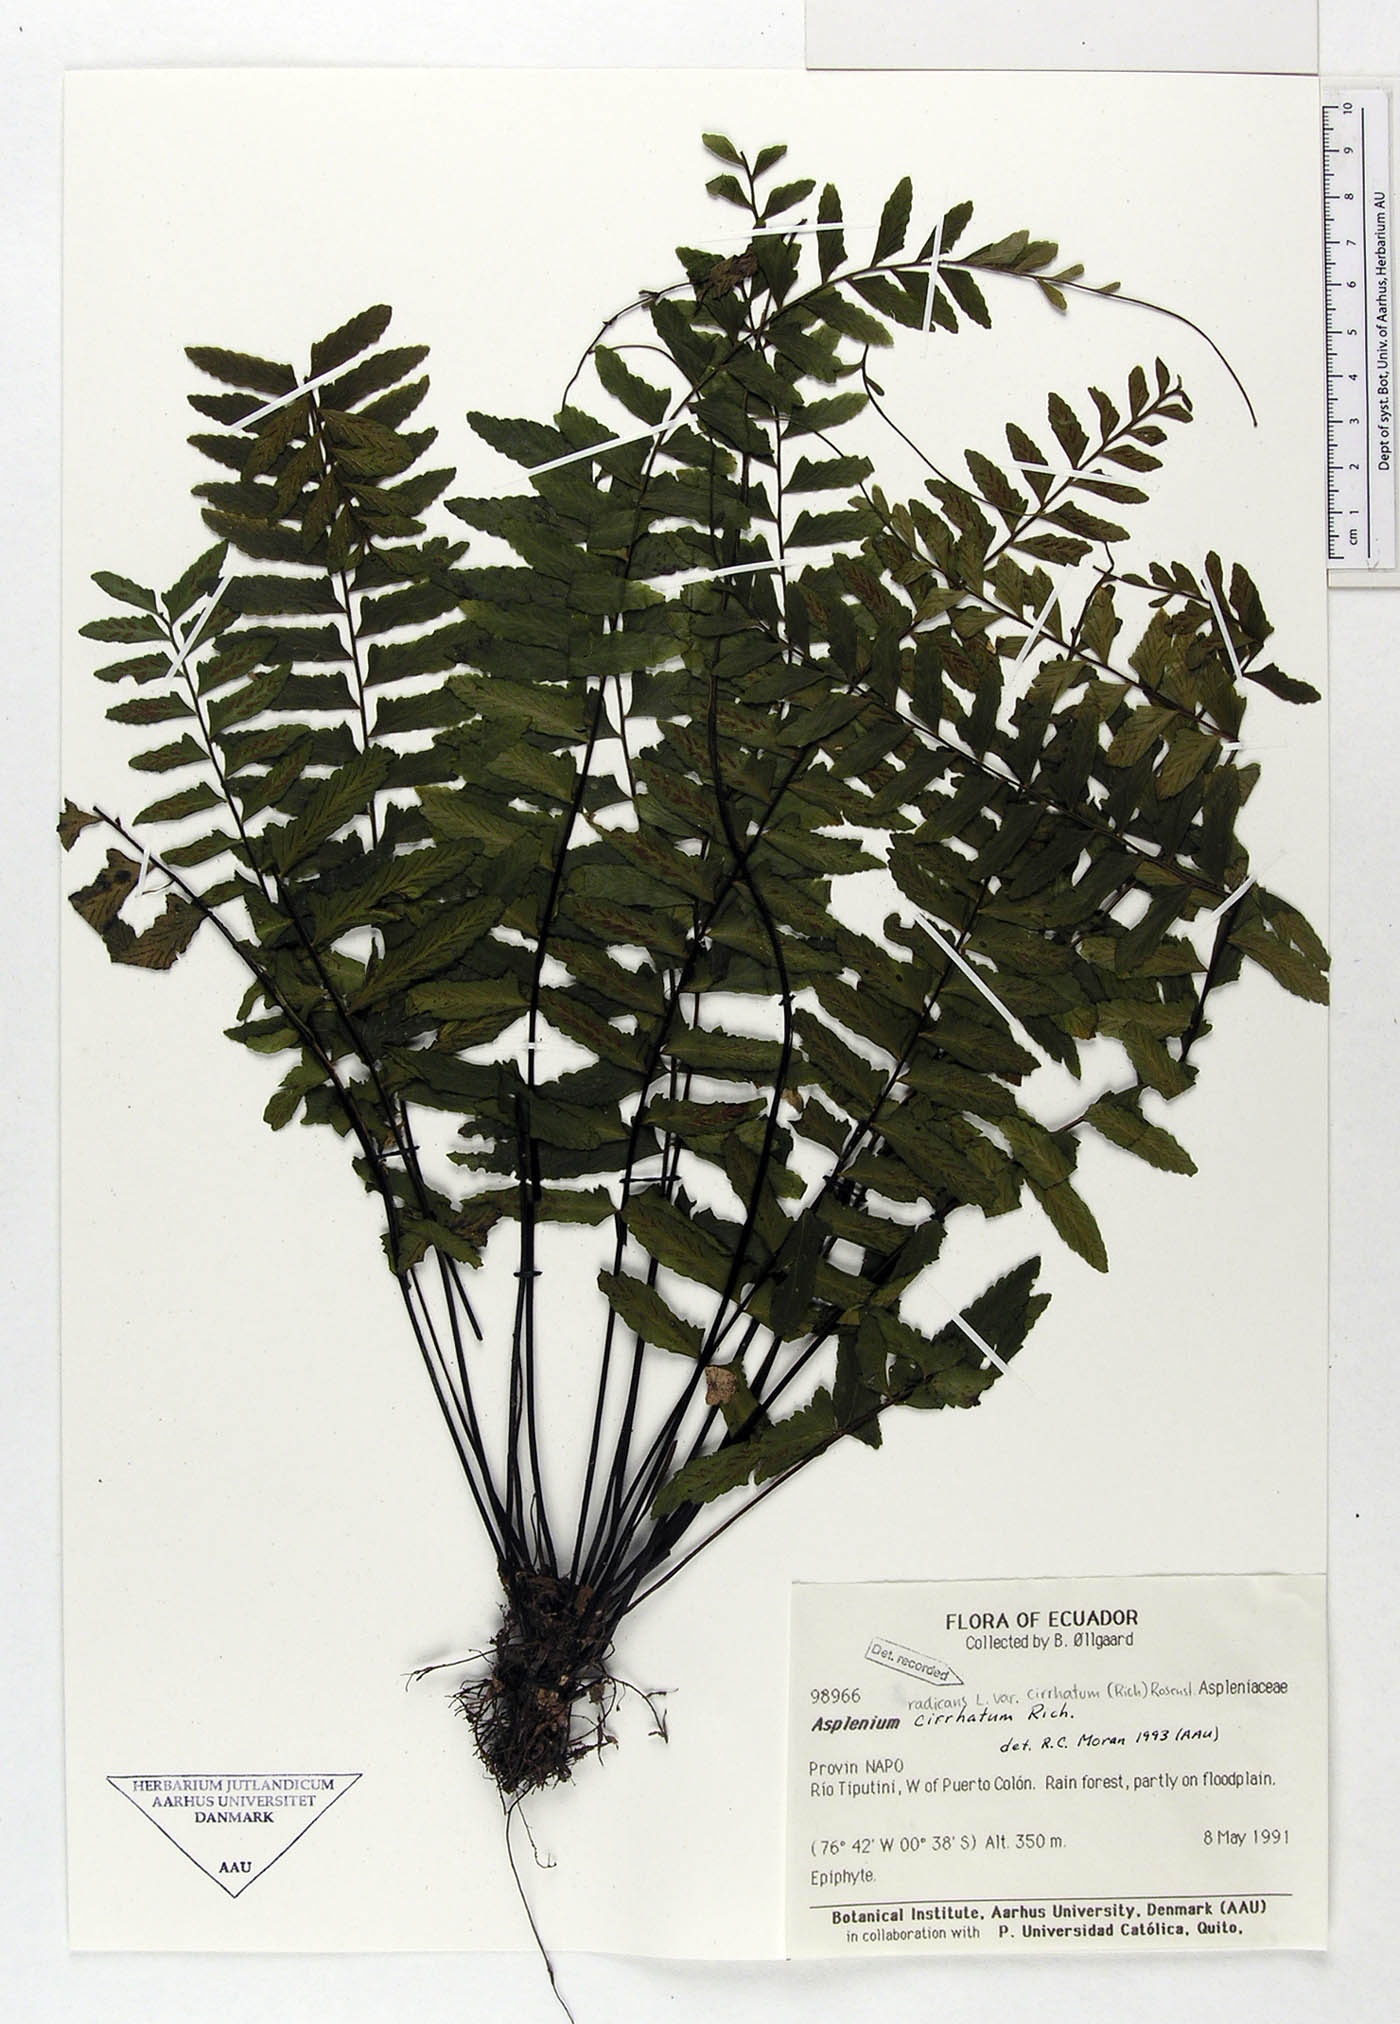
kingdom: Plantae
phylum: Tracheophyta
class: Polypodiopsida
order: Polypodiales
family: Aspleniaceae
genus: Asplenium
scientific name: Asplenium cirrhatum
